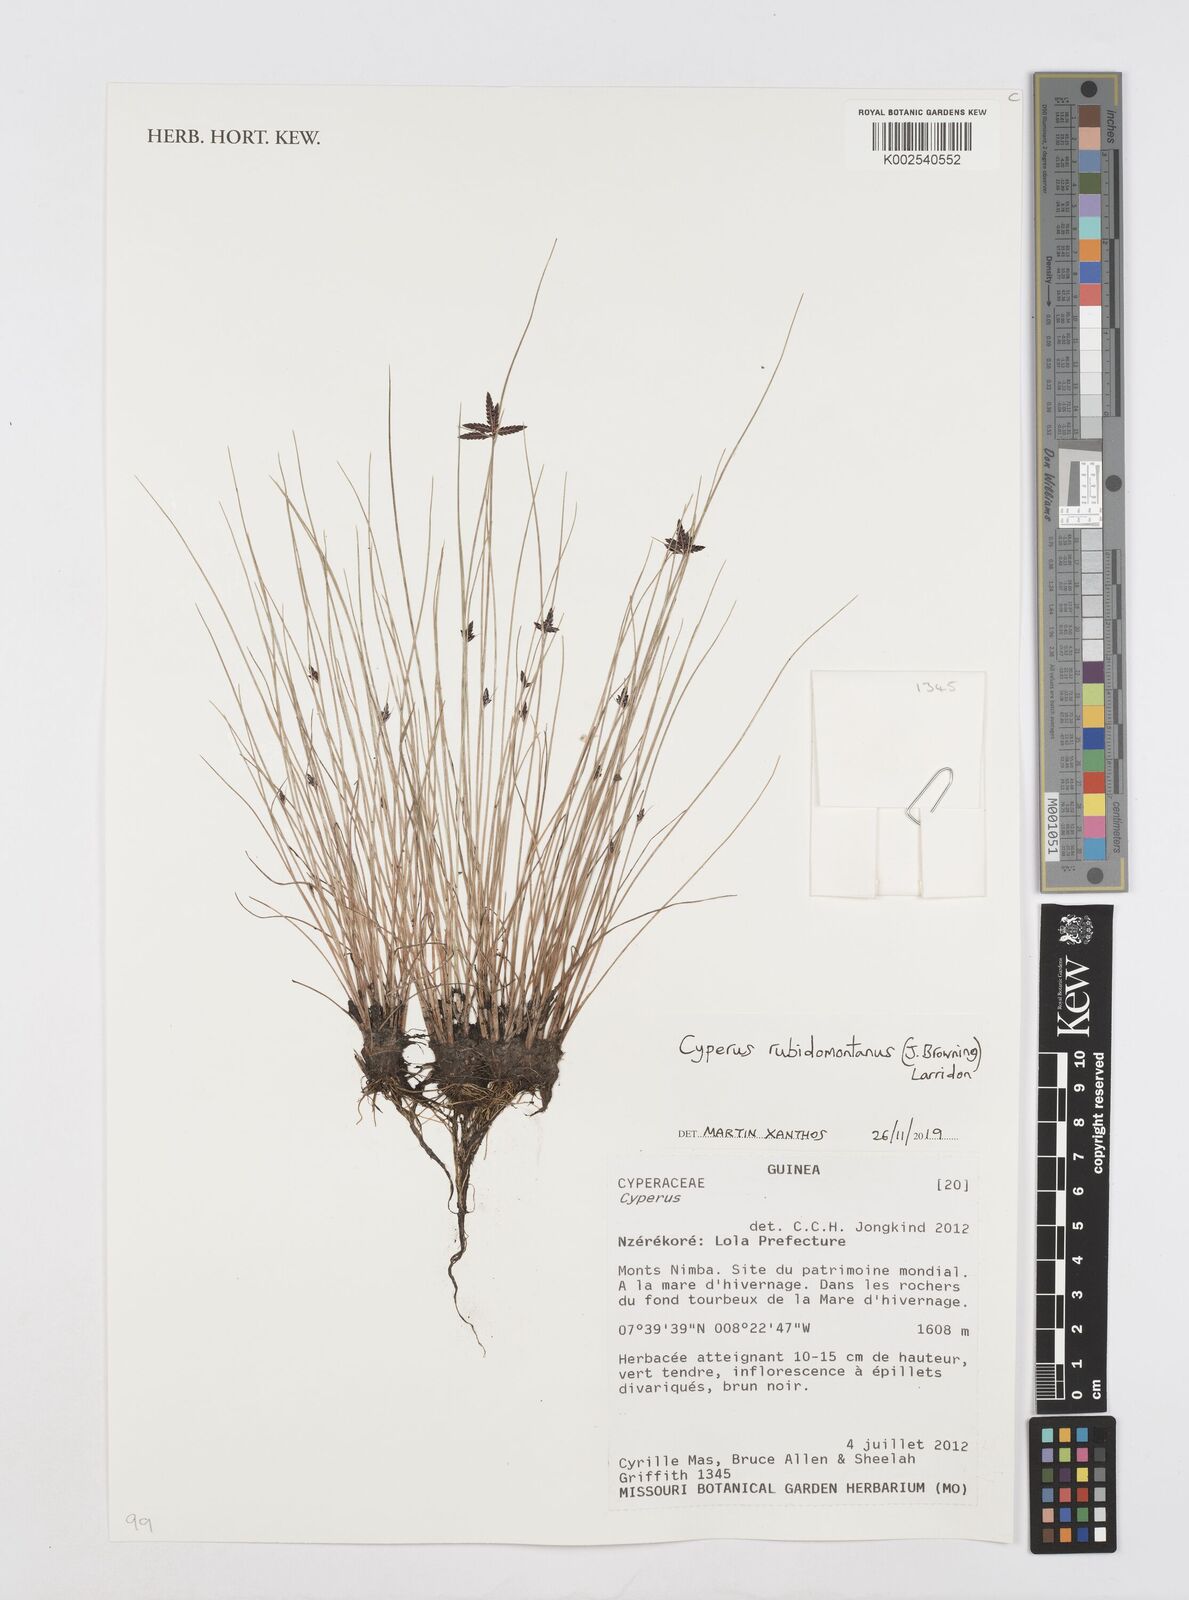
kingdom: Plantae
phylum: Tracheophyta
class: Liliopsida
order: Poales
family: Cyperaceae
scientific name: Cyperaceae
